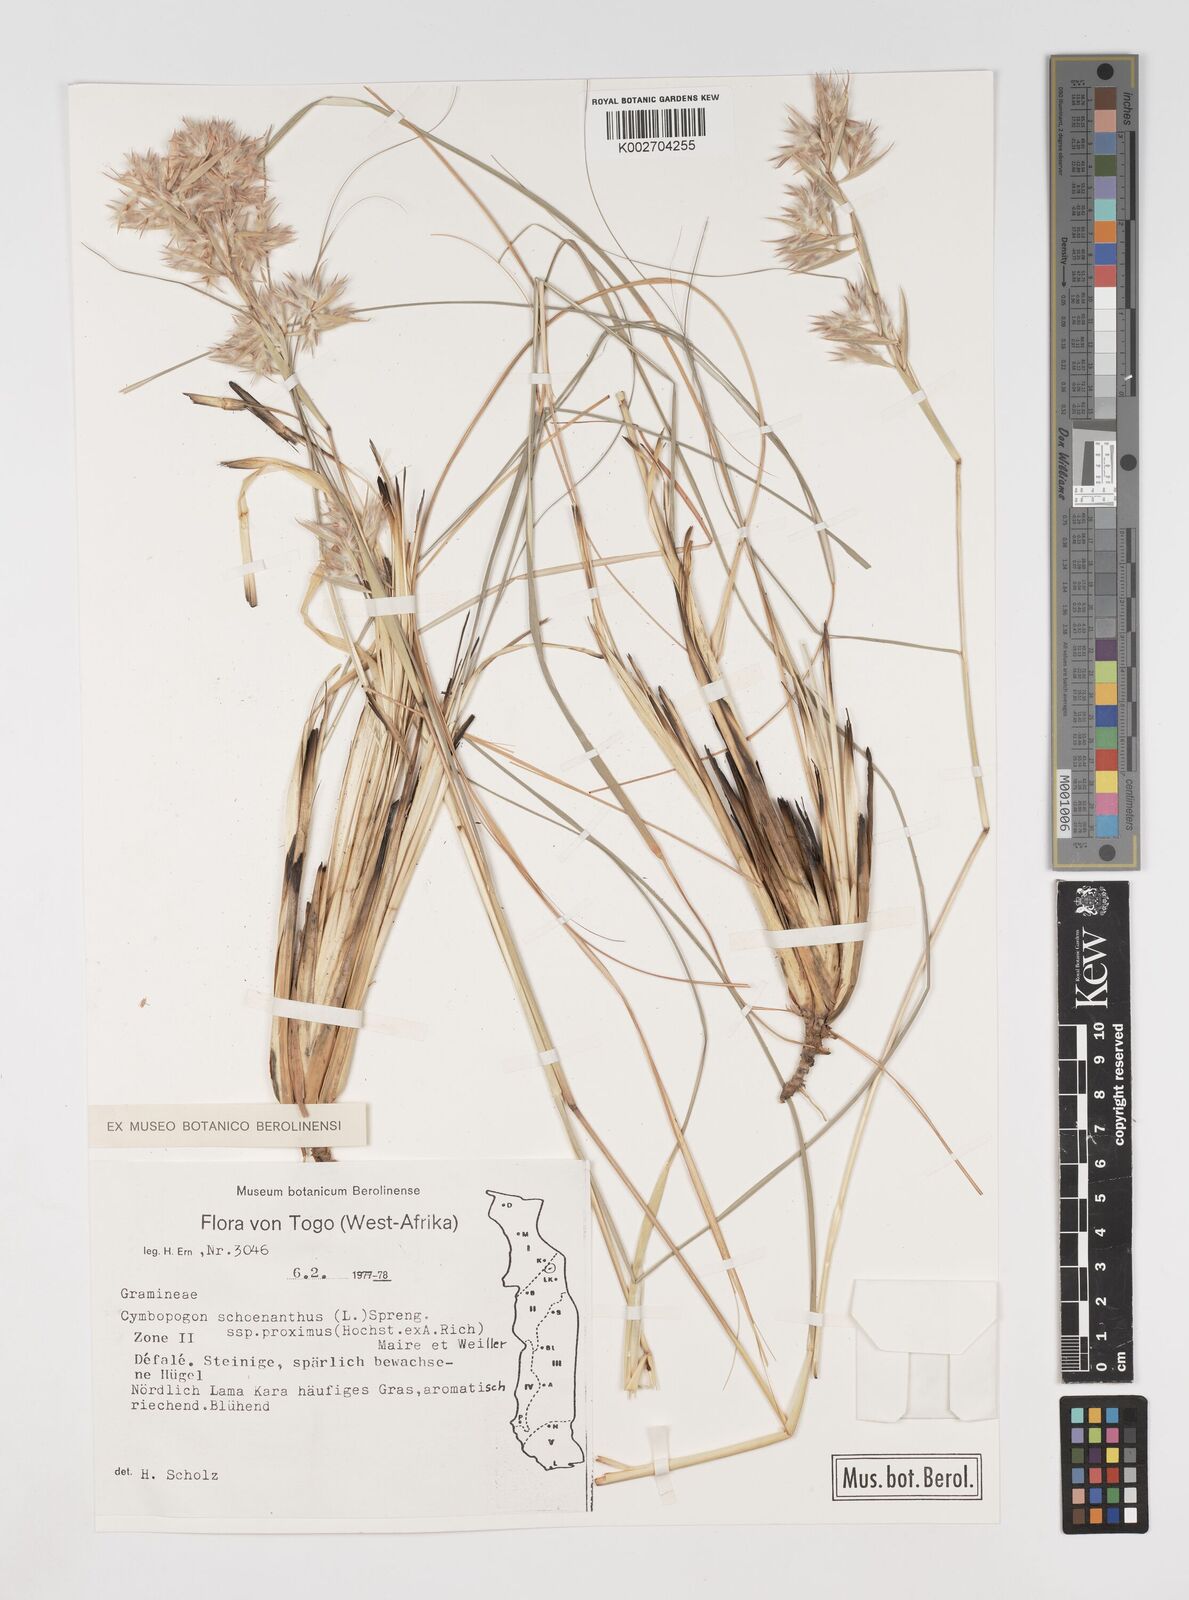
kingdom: Plantae
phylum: Tracheophyta
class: Liliopsida
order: Poales
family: Poaceae
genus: Cymbopogon
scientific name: Cymbopogon schoenanthus
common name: Geranium grass
